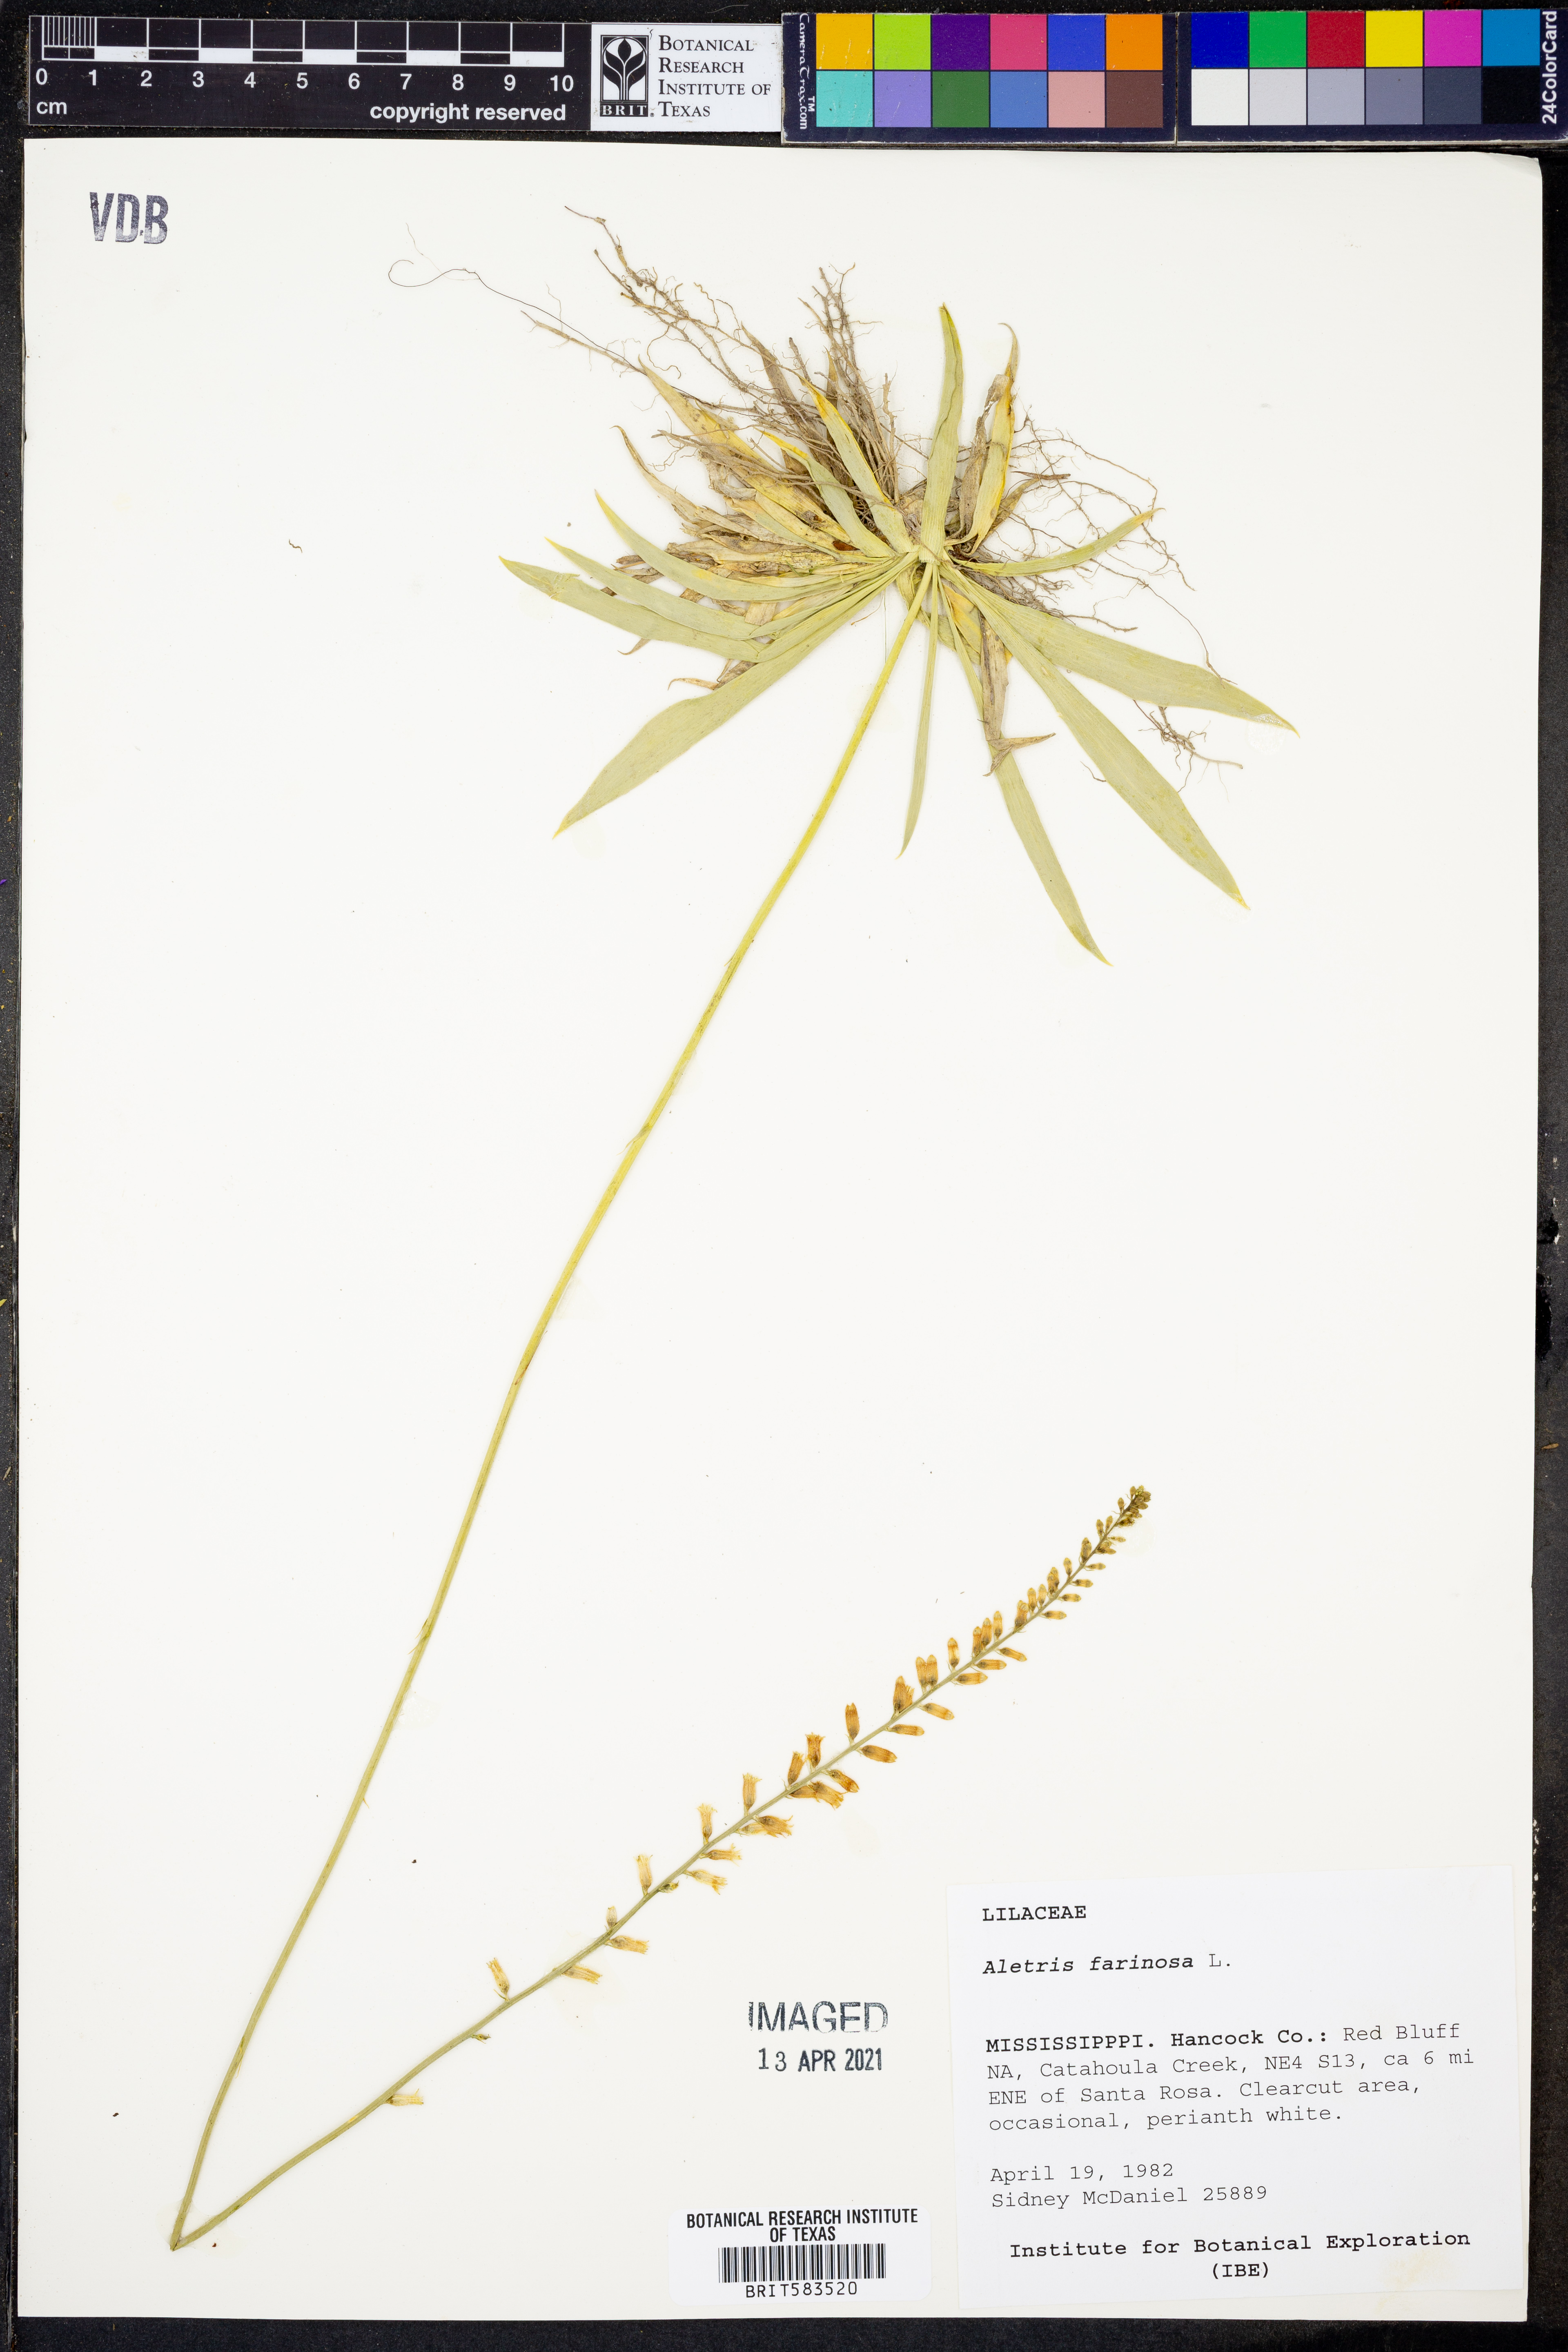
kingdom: Plantae
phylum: Tracheophyta
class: Liliopsida
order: Dioscoreales
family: Nartheciaceae
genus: Aletris
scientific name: Aletris farinosa
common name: Colicroot
